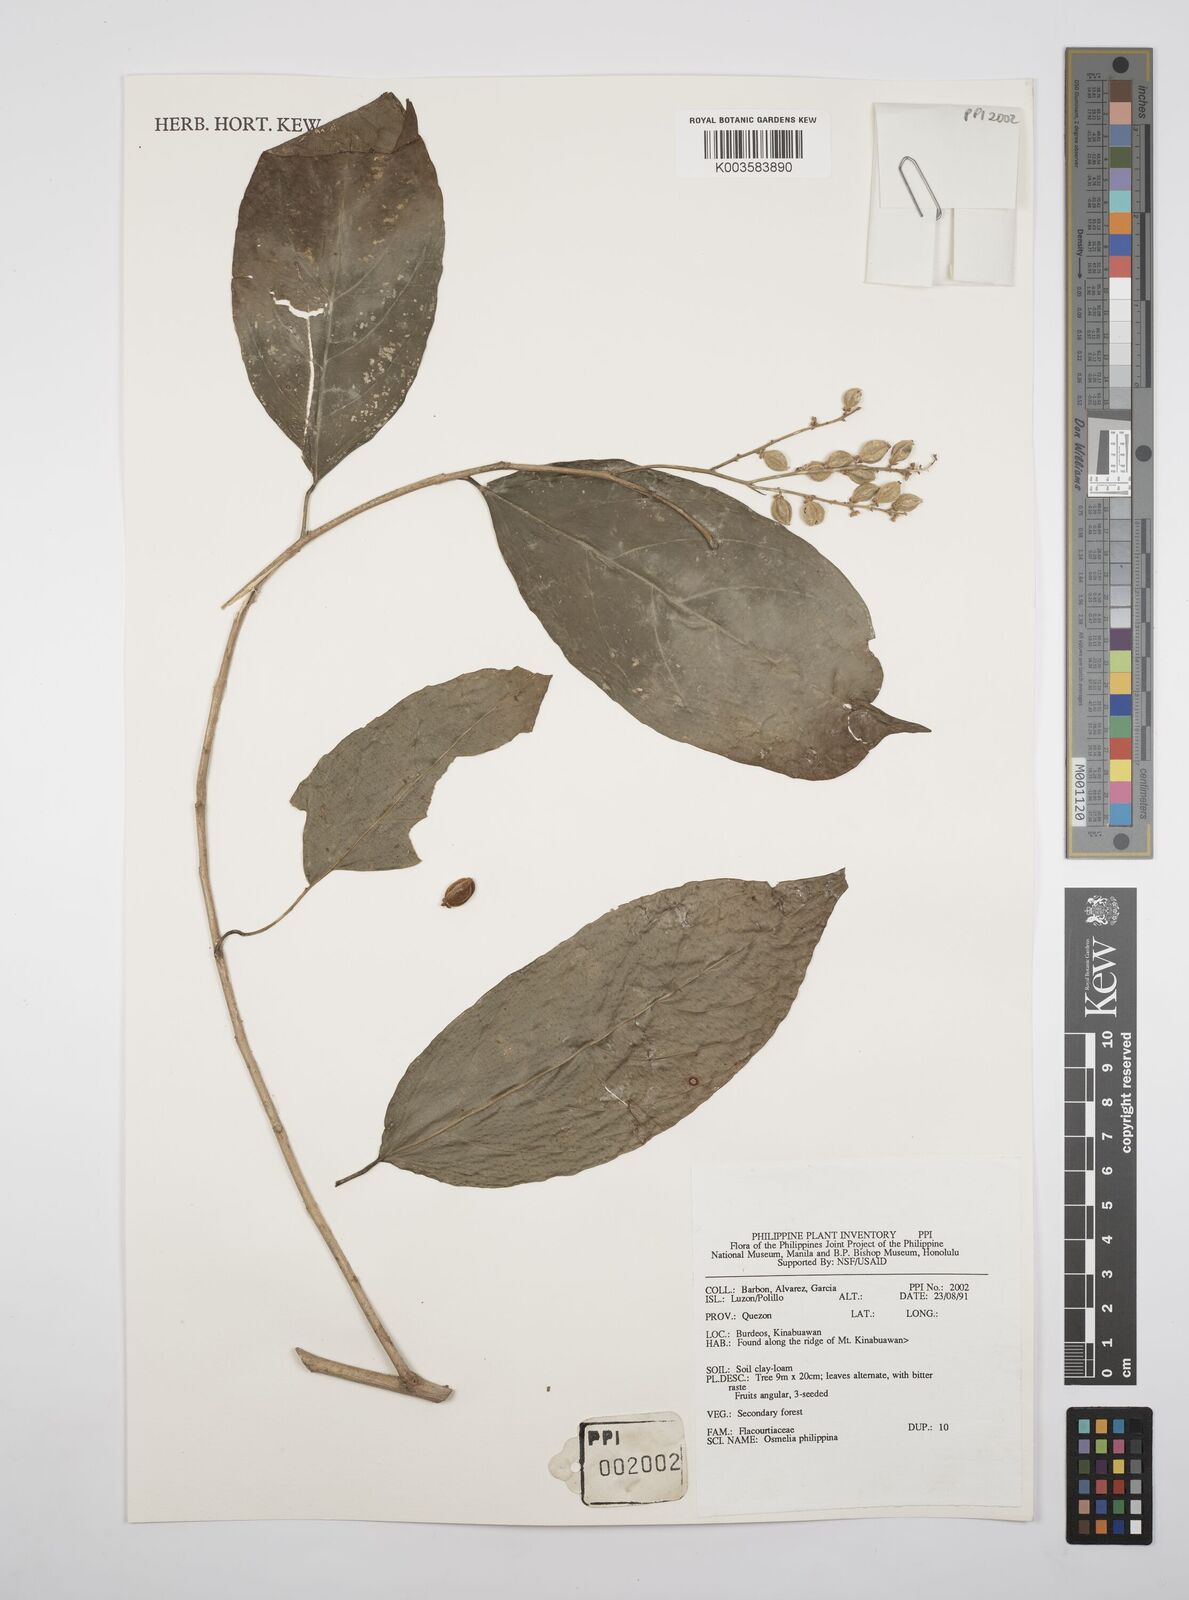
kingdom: Plantae
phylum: Tracheophyta
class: Magnoliopsida
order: Malpighiales
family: Salicaceae
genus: Osmelia
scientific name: Osmelia philippina
